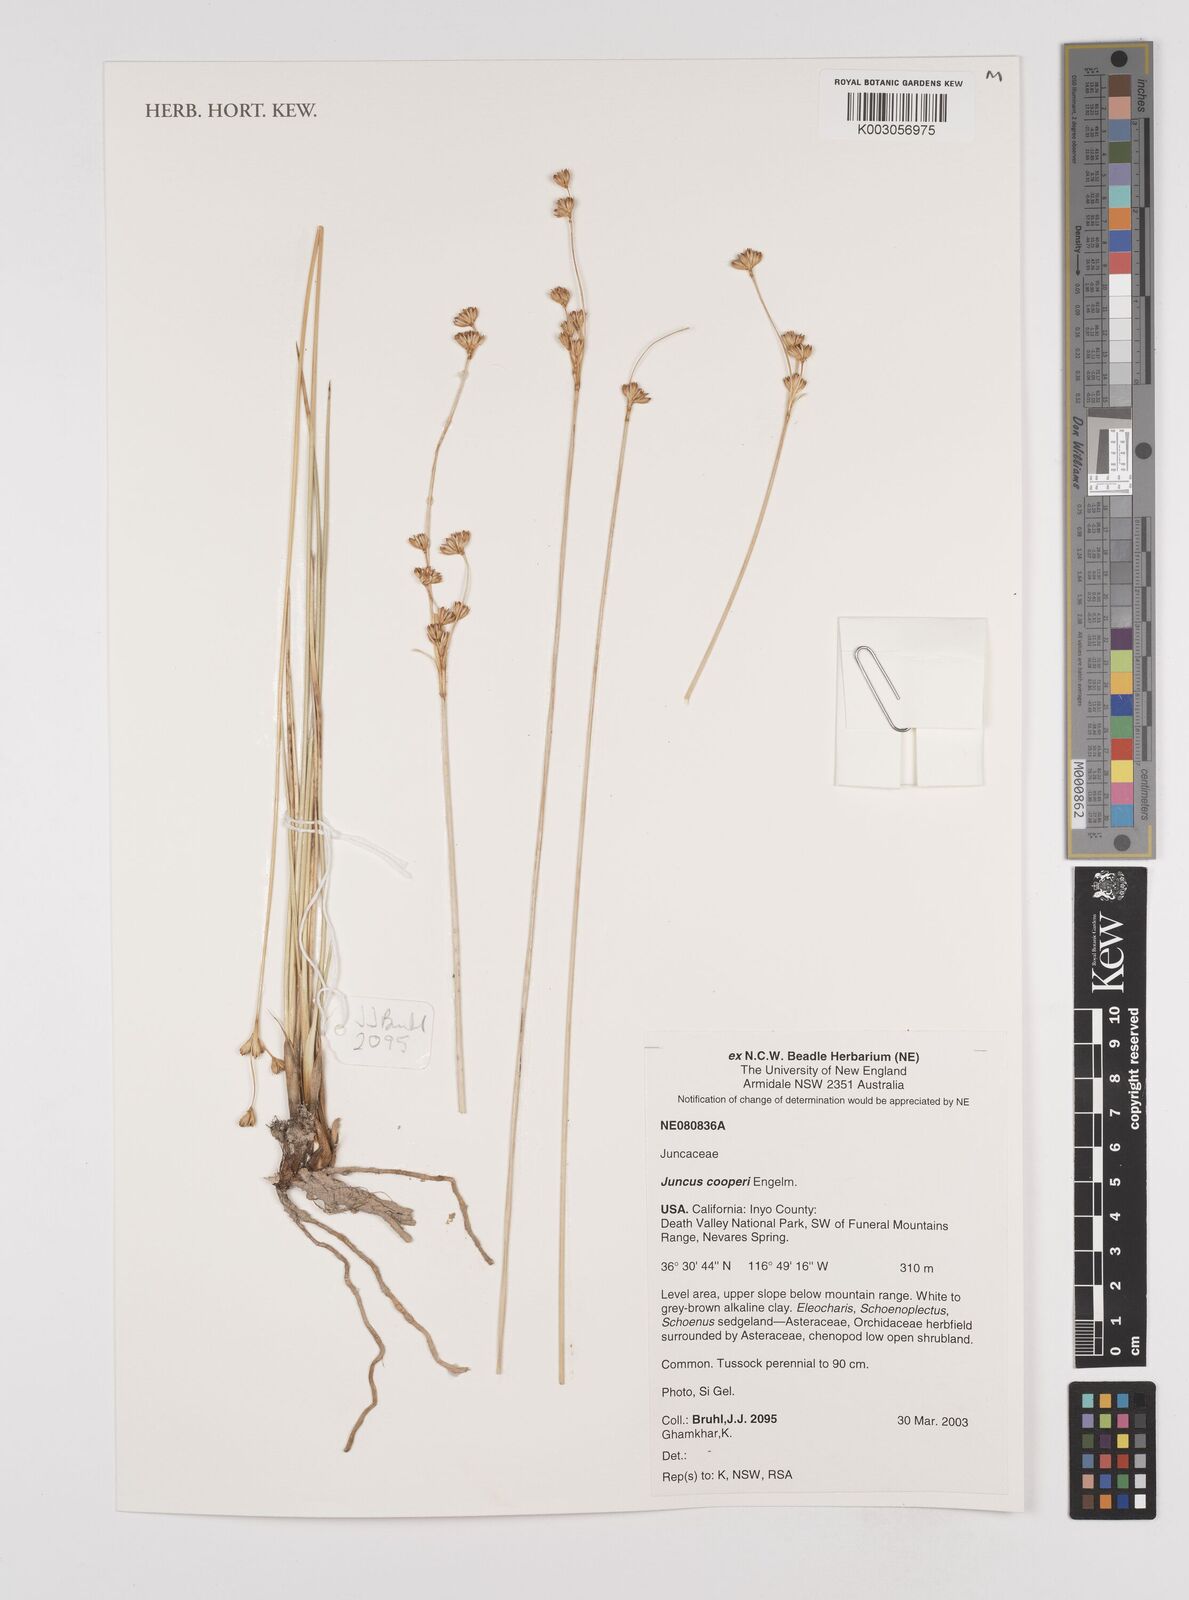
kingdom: Plantae
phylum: Tracheophyta
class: Liliopsida
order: Poales
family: Juncaceae
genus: Juncus
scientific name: Juncus cooperi
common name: Cooper's rush
